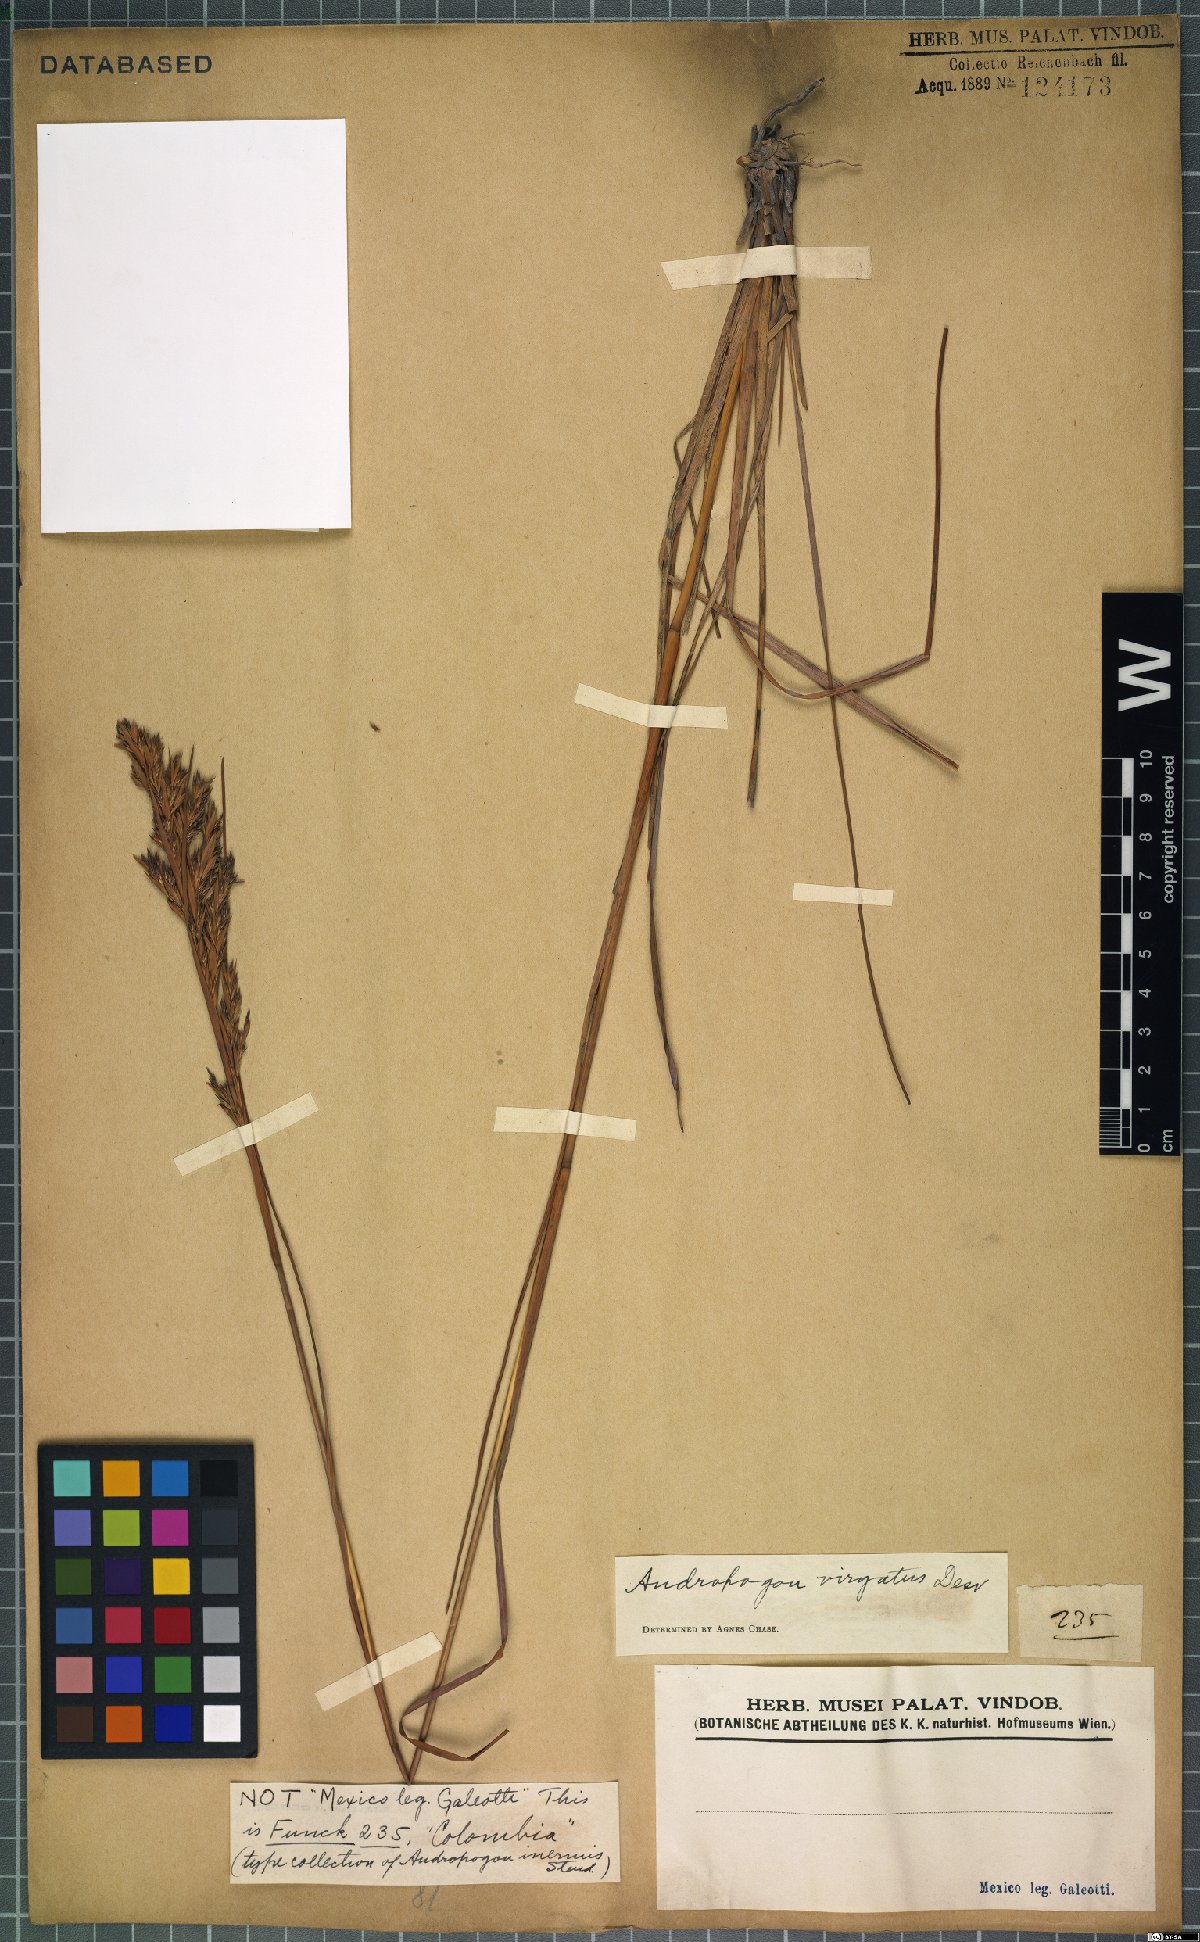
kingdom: Plantae
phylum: Tracheophyta
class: Liliopsida
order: Poales
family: Poaceae
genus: Andropogon
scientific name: Andropogon virgatus
